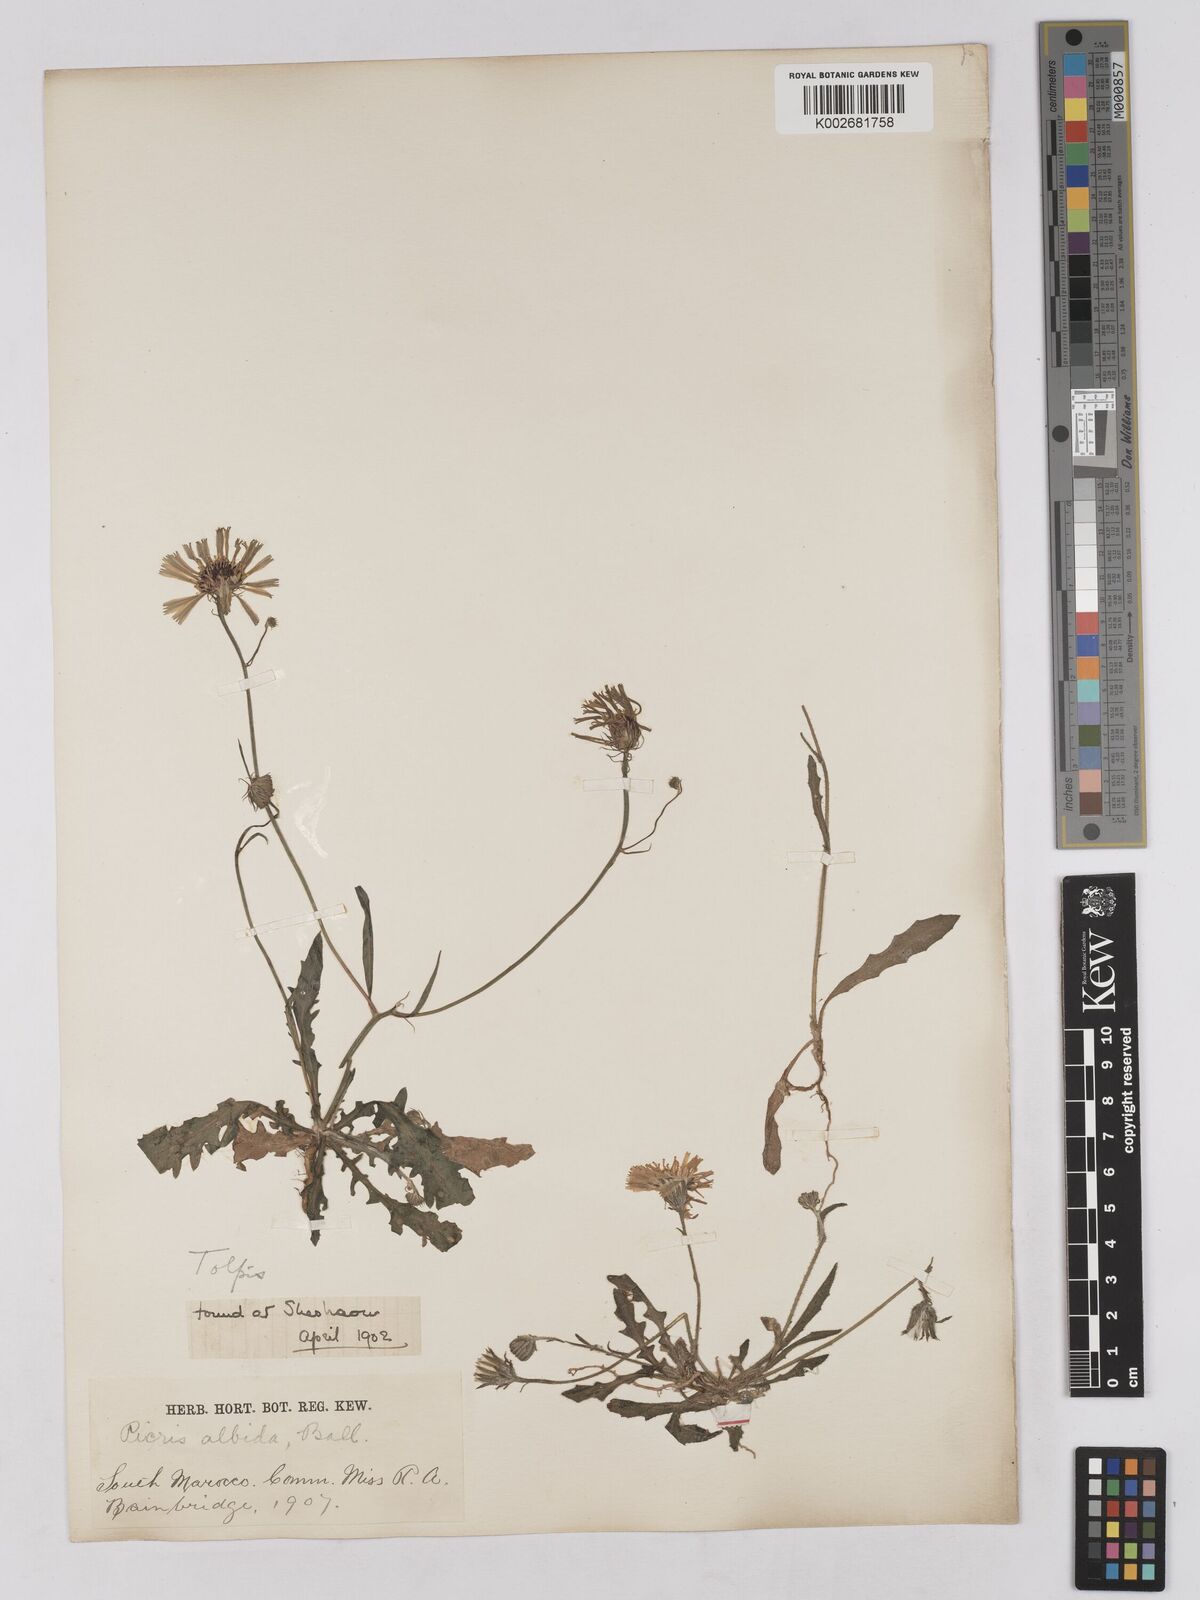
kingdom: Plantae
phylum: Tracheophyta
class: Magnoliopsida
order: Asterales
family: Asteraceae
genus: Tolpis
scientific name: Tolpis barbata
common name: Yellow hawkweed
